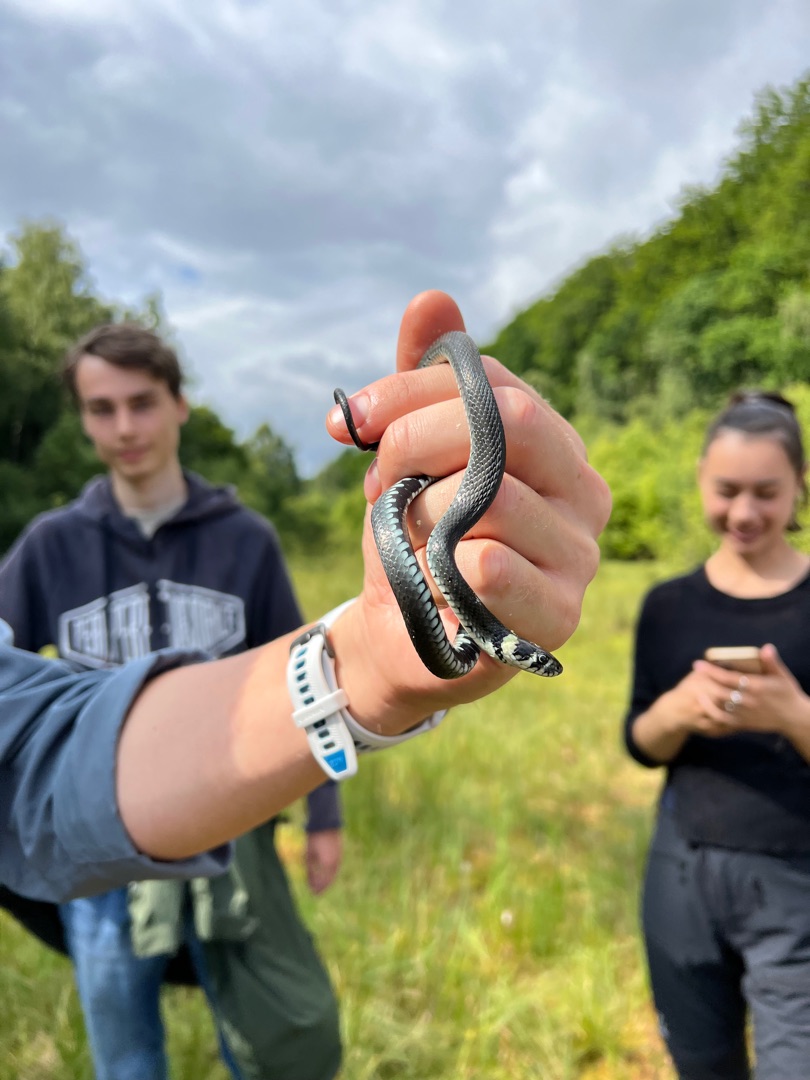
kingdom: Animalia
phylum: Chordata
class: Squamata
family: Colubridae
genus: Natrix
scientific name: Natrix natrix
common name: Snog
